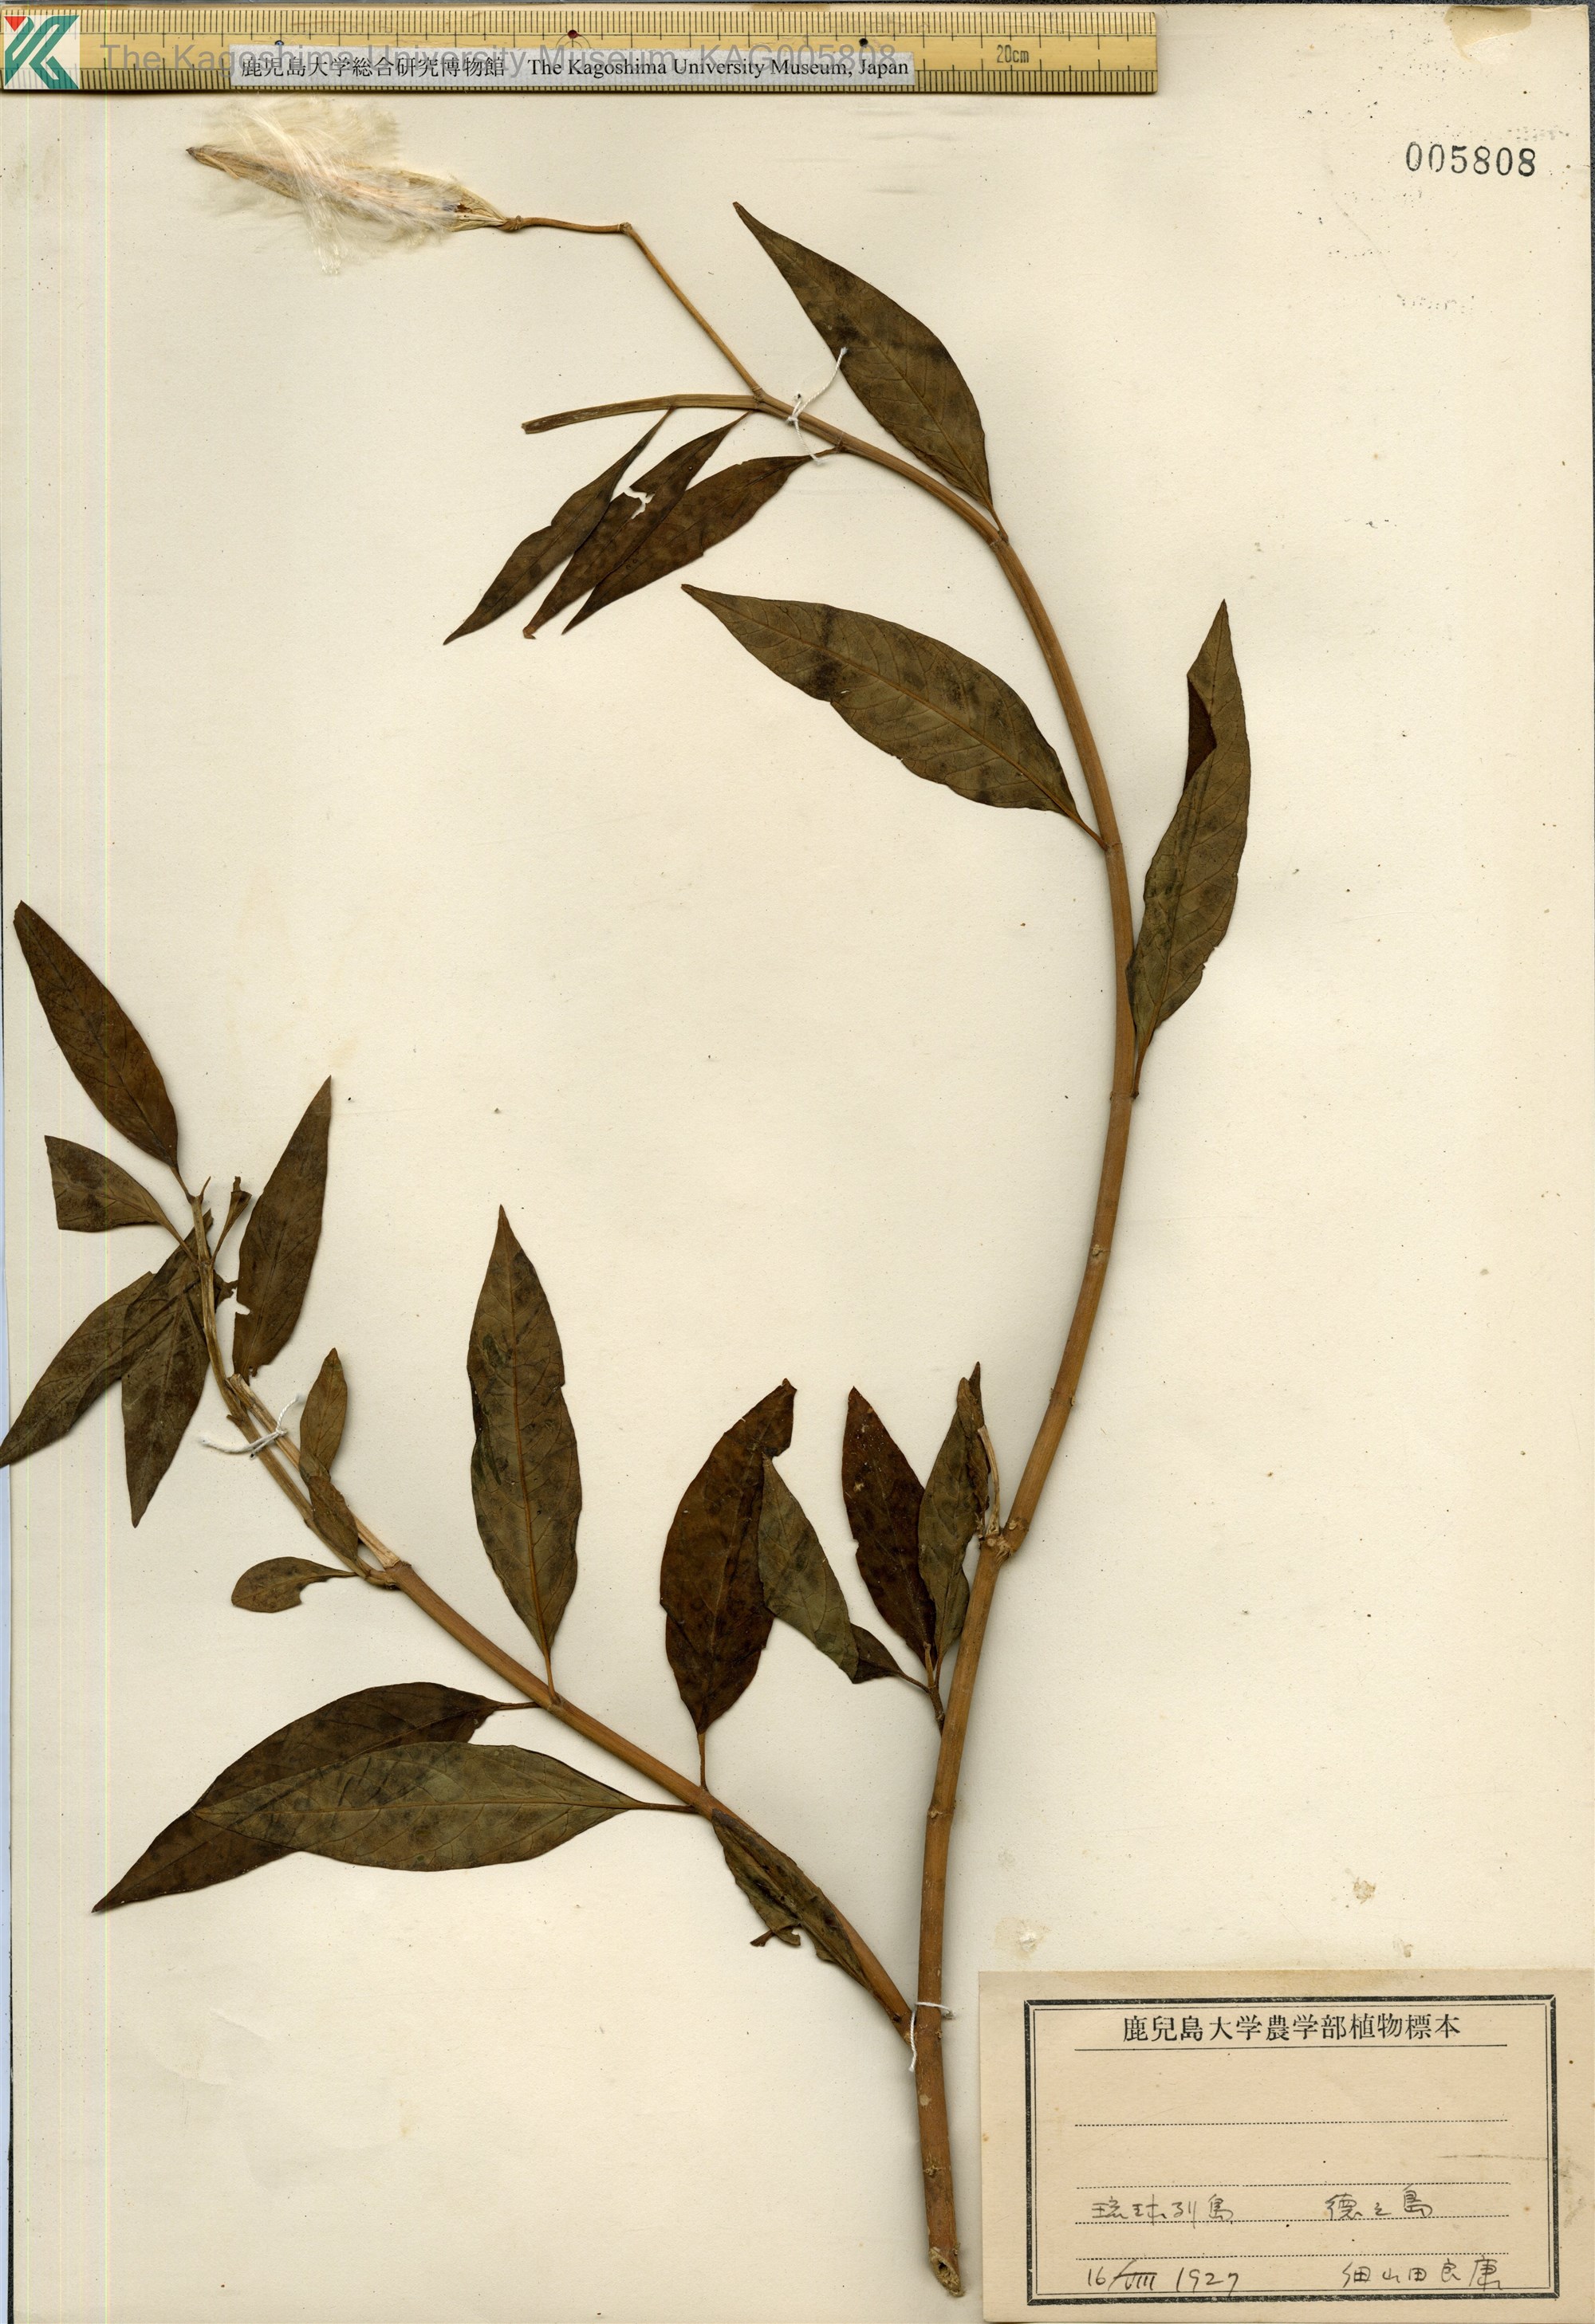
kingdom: Plantae
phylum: Tracheophyta
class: Magnoliopsida
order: Gentianales
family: Apocynaceae
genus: Asclepias
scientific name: Asclepias
